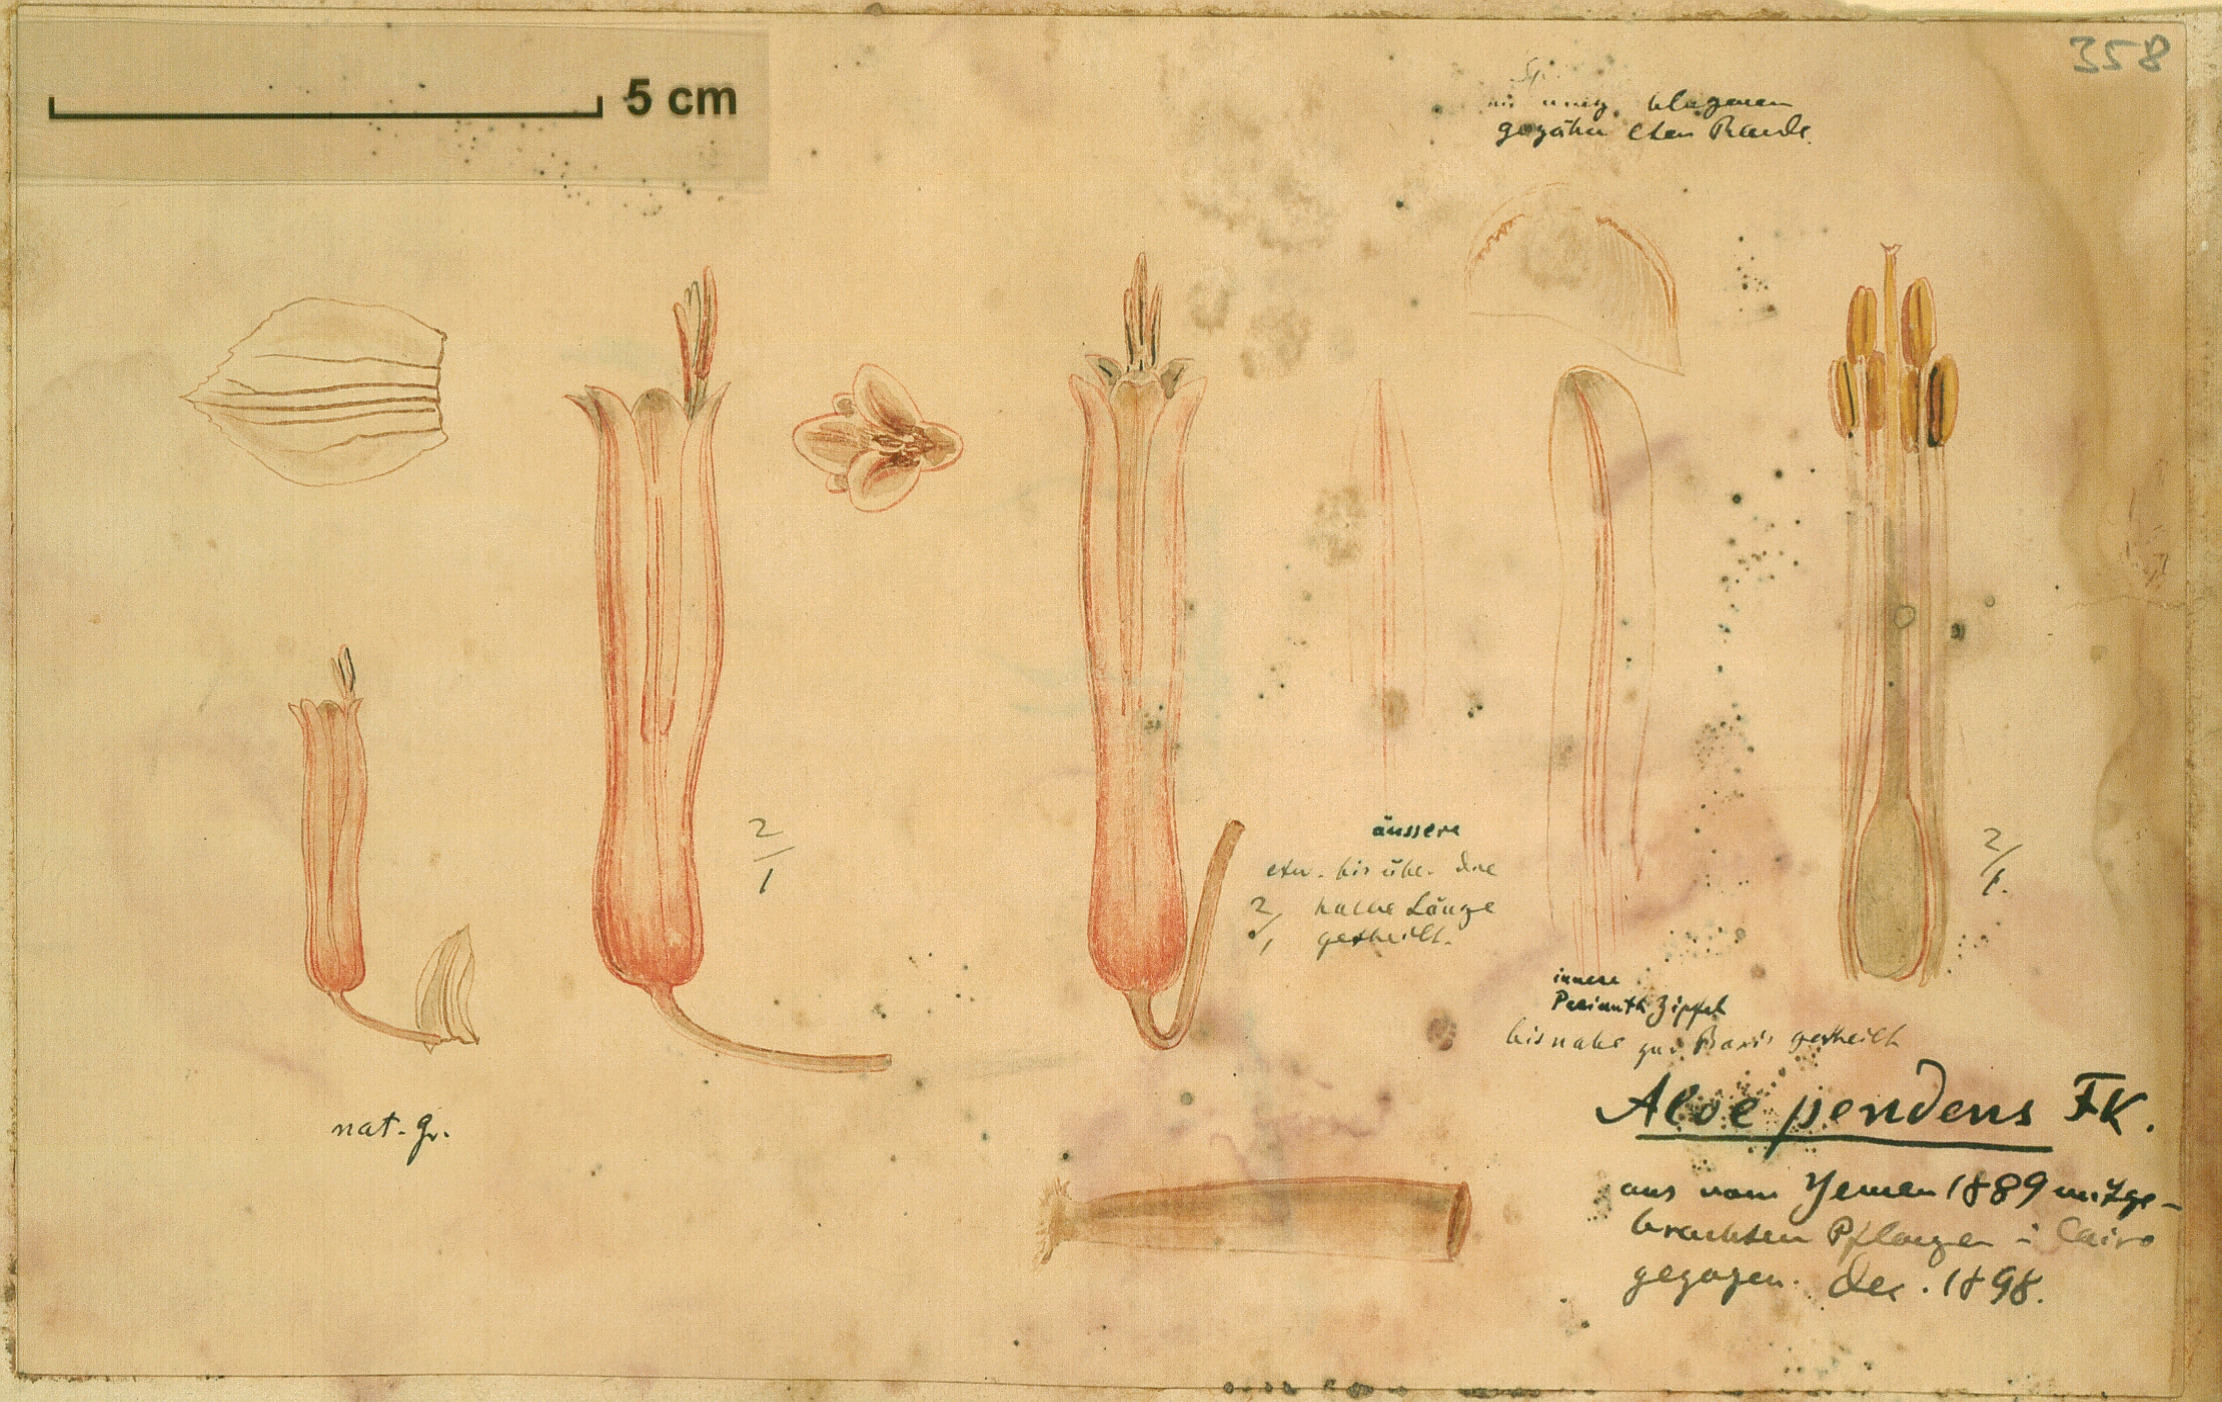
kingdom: Plantae
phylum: Tracheophyta
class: Liliopsida
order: Asparagales
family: Asphodelaceae
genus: Aloe
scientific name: Aloe pendens
